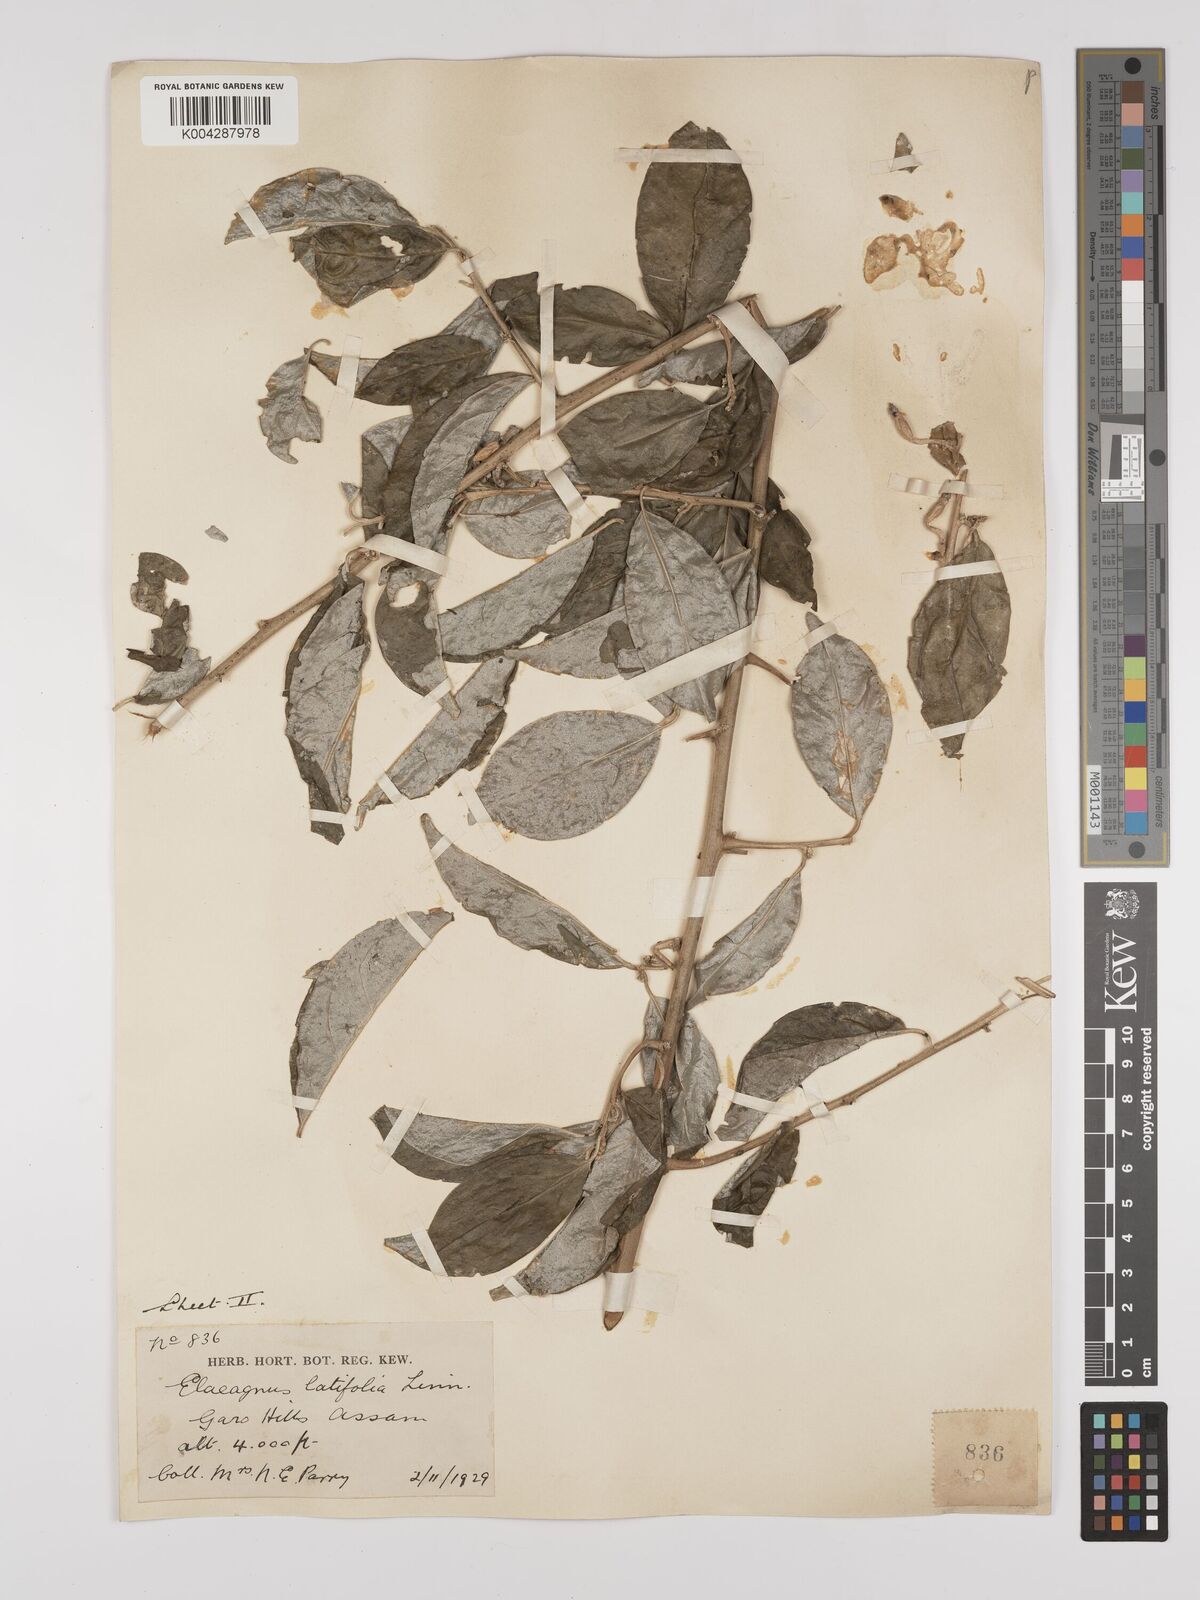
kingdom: Plantae
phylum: Tracheophyta
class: Magnoliopsida
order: Rosales
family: Elaeagnaceae
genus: Elaeagnus
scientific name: Elaeagnus latifolia
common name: Oleaster
